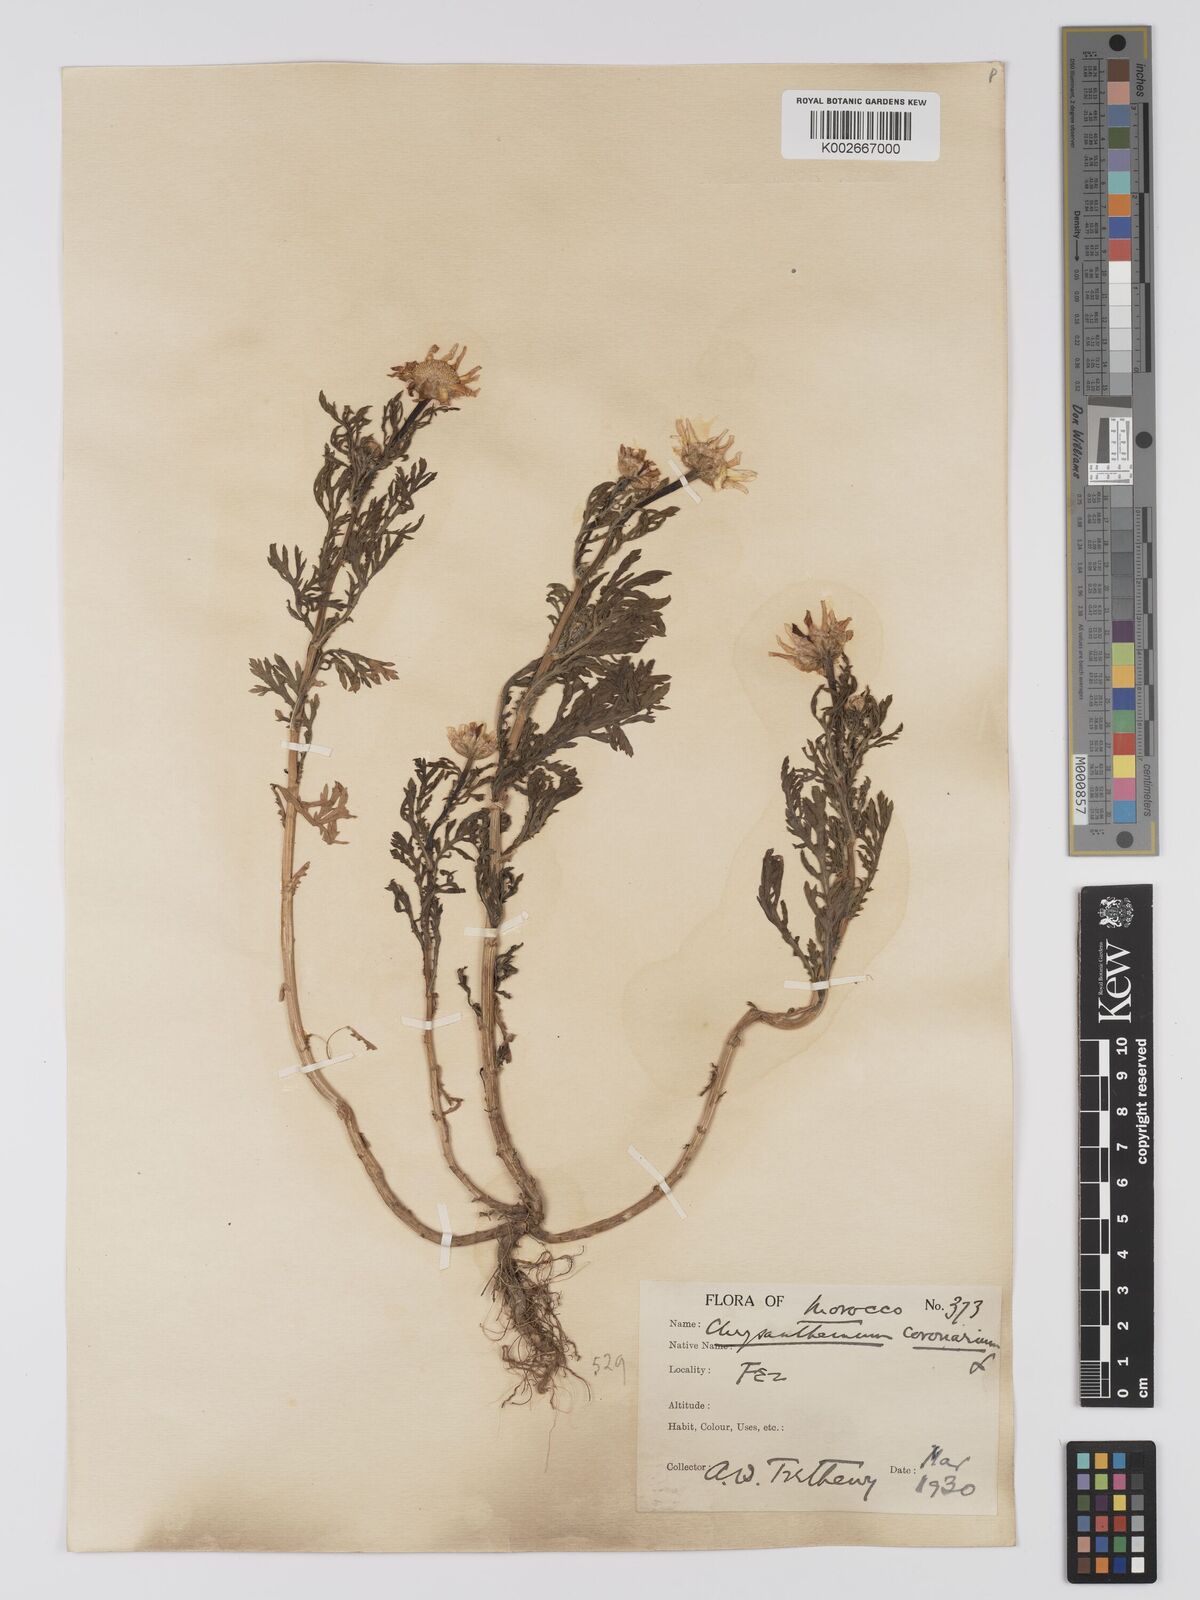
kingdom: Plantae
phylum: Tracheophyta
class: Magnoliopsida
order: Asterales
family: Asteraceae
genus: Glebionis
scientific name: Glebionis coronaria
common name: Crowndaisy
